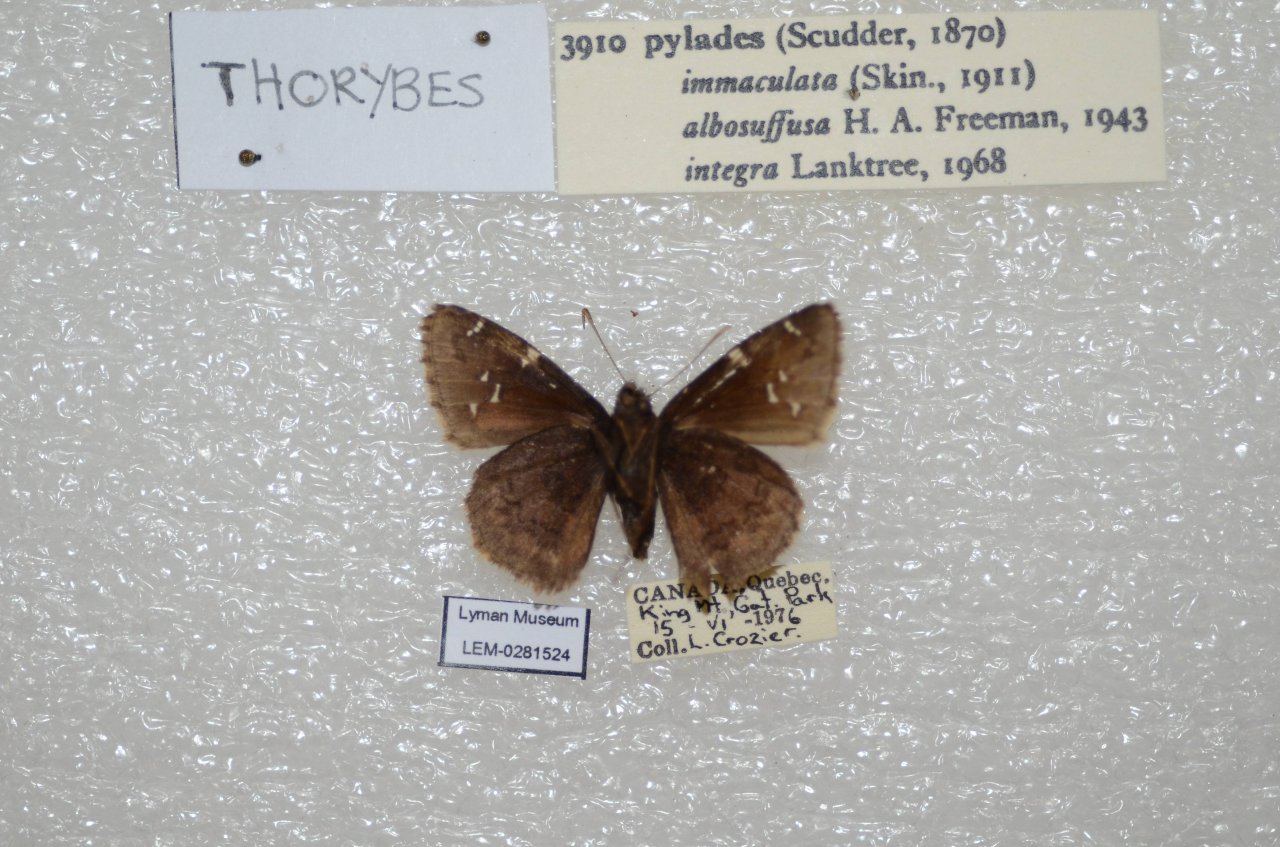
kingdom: Animalia
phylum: Arthropoda
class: Insecta
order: Lepidoptera
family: Hesperiidae
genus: Autochton
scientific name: Autochton
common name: Northern Cloudywing
